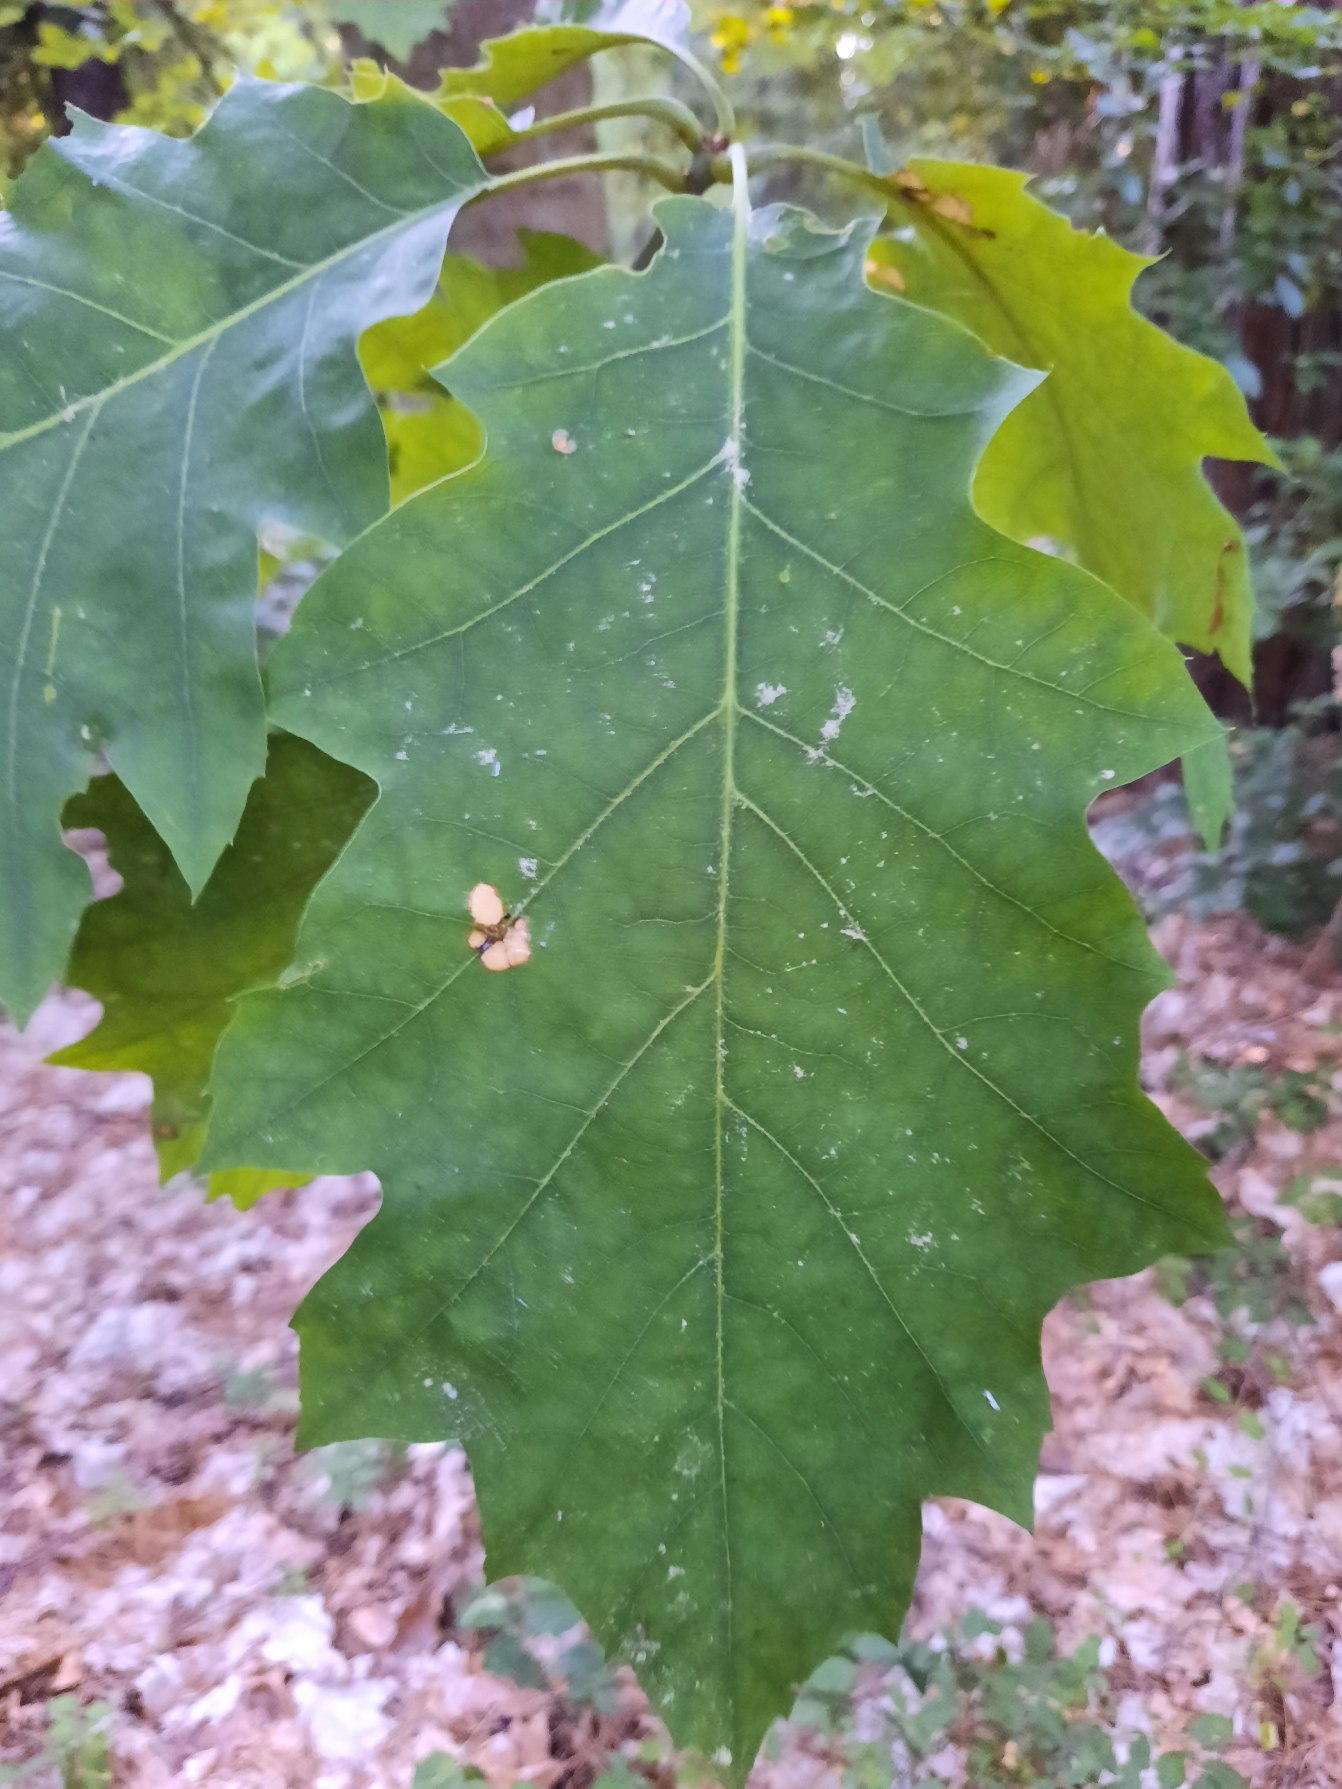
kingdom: Plantae
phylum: Tracheophyta
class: Magnoliopsida
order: Fagales
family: Fagaceae
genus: Quercus
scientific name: Quercus rubra
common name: Rød-eg
